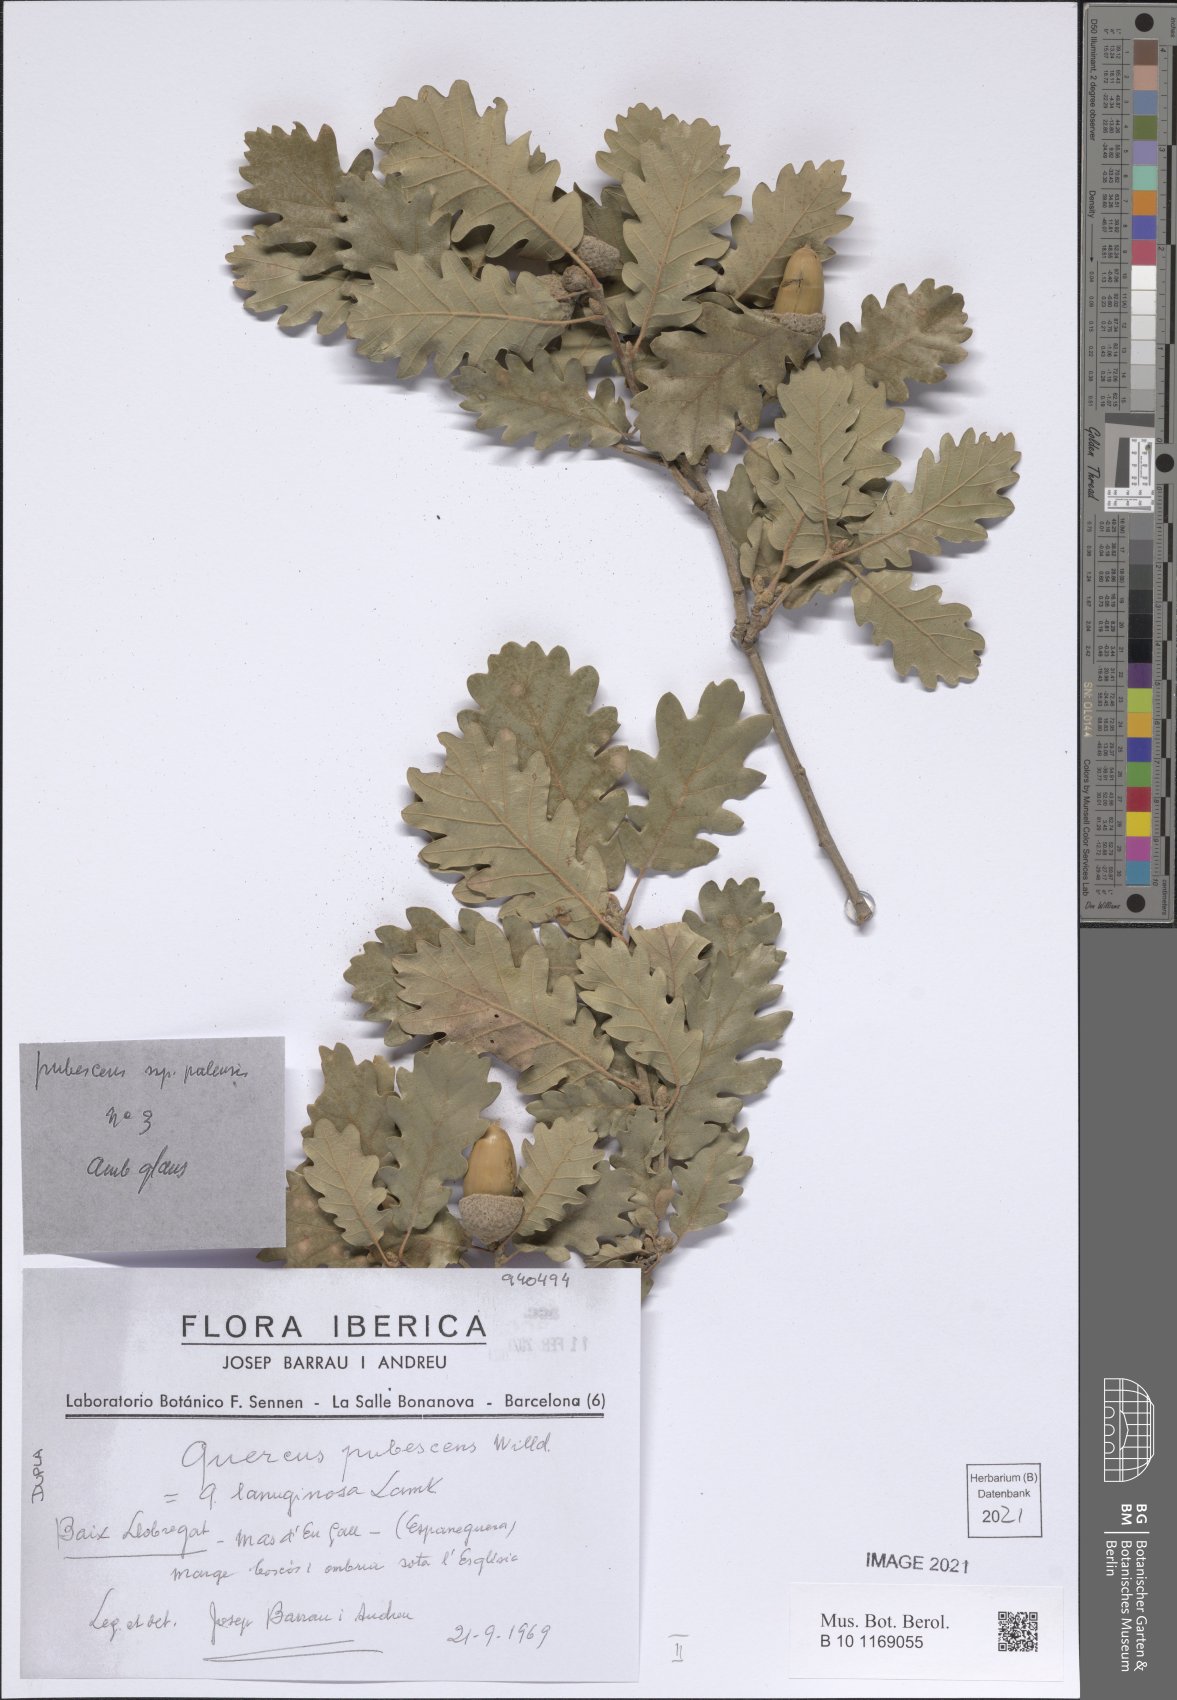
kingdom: Plantae
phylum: Tracheophyta
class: Magnoliopsida
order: Fagales
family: Fagaceae
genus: Quercus
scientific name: Quercus pubescens
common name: Downy oak
